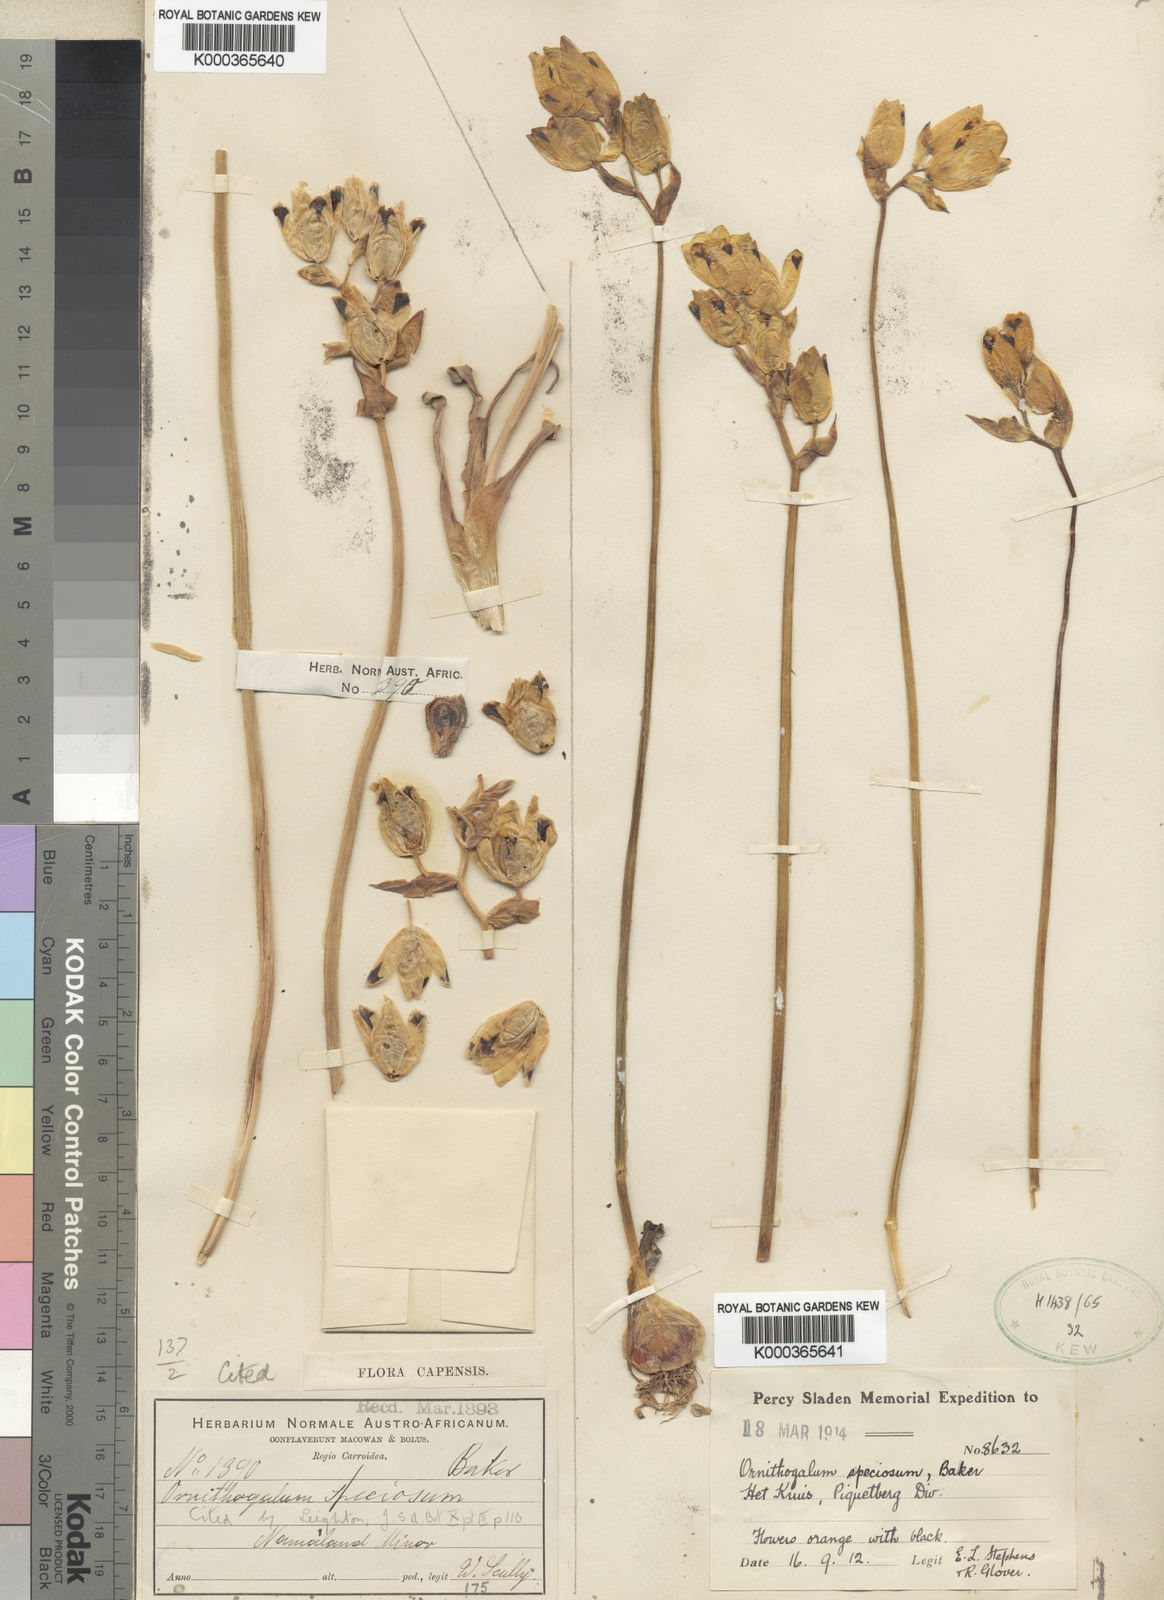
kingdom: Plantae
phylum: Tracheophyta
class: Liliopsida
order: Asparagales
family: Asparagaceae
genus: Ornithogalum
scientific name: Ornithogalum maculatum
